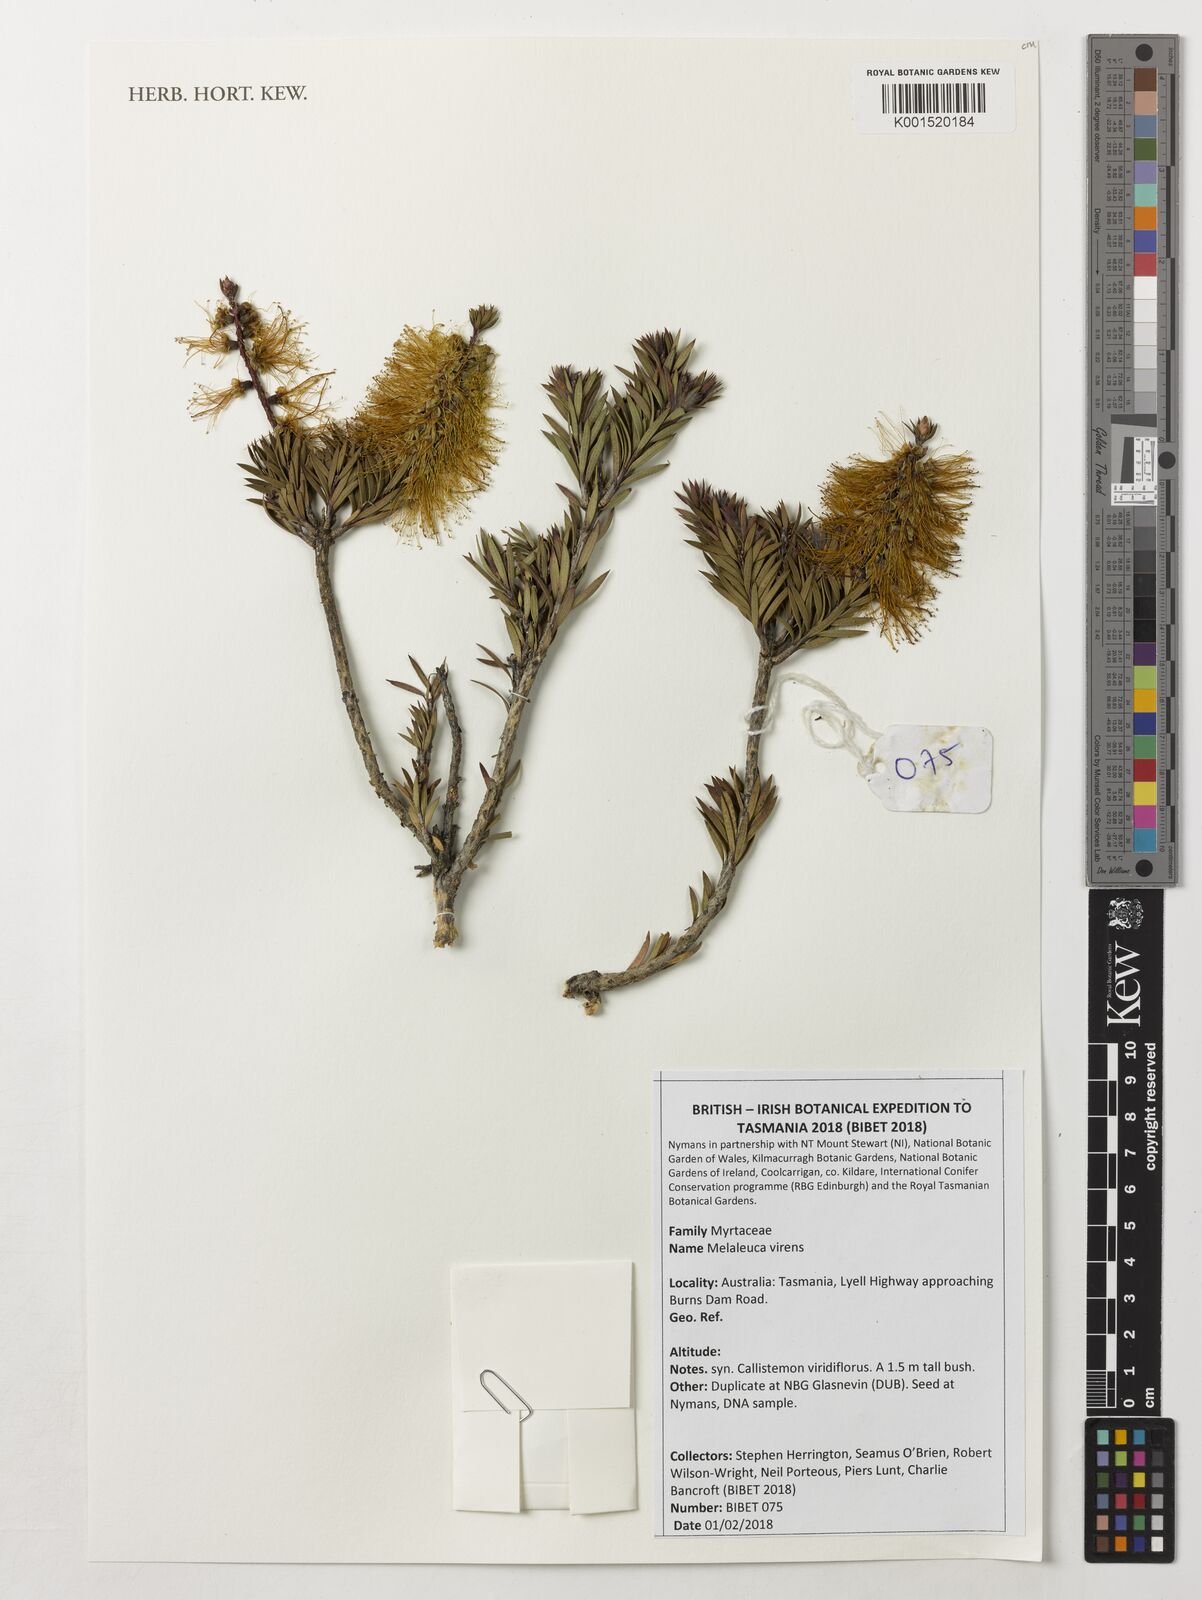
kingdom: Plantae
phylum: Tracheophyta
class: Magnoliopsida
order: Myrtales
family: Myrtaceae
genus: Callistemon
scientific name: Callistemon viridiflorus
